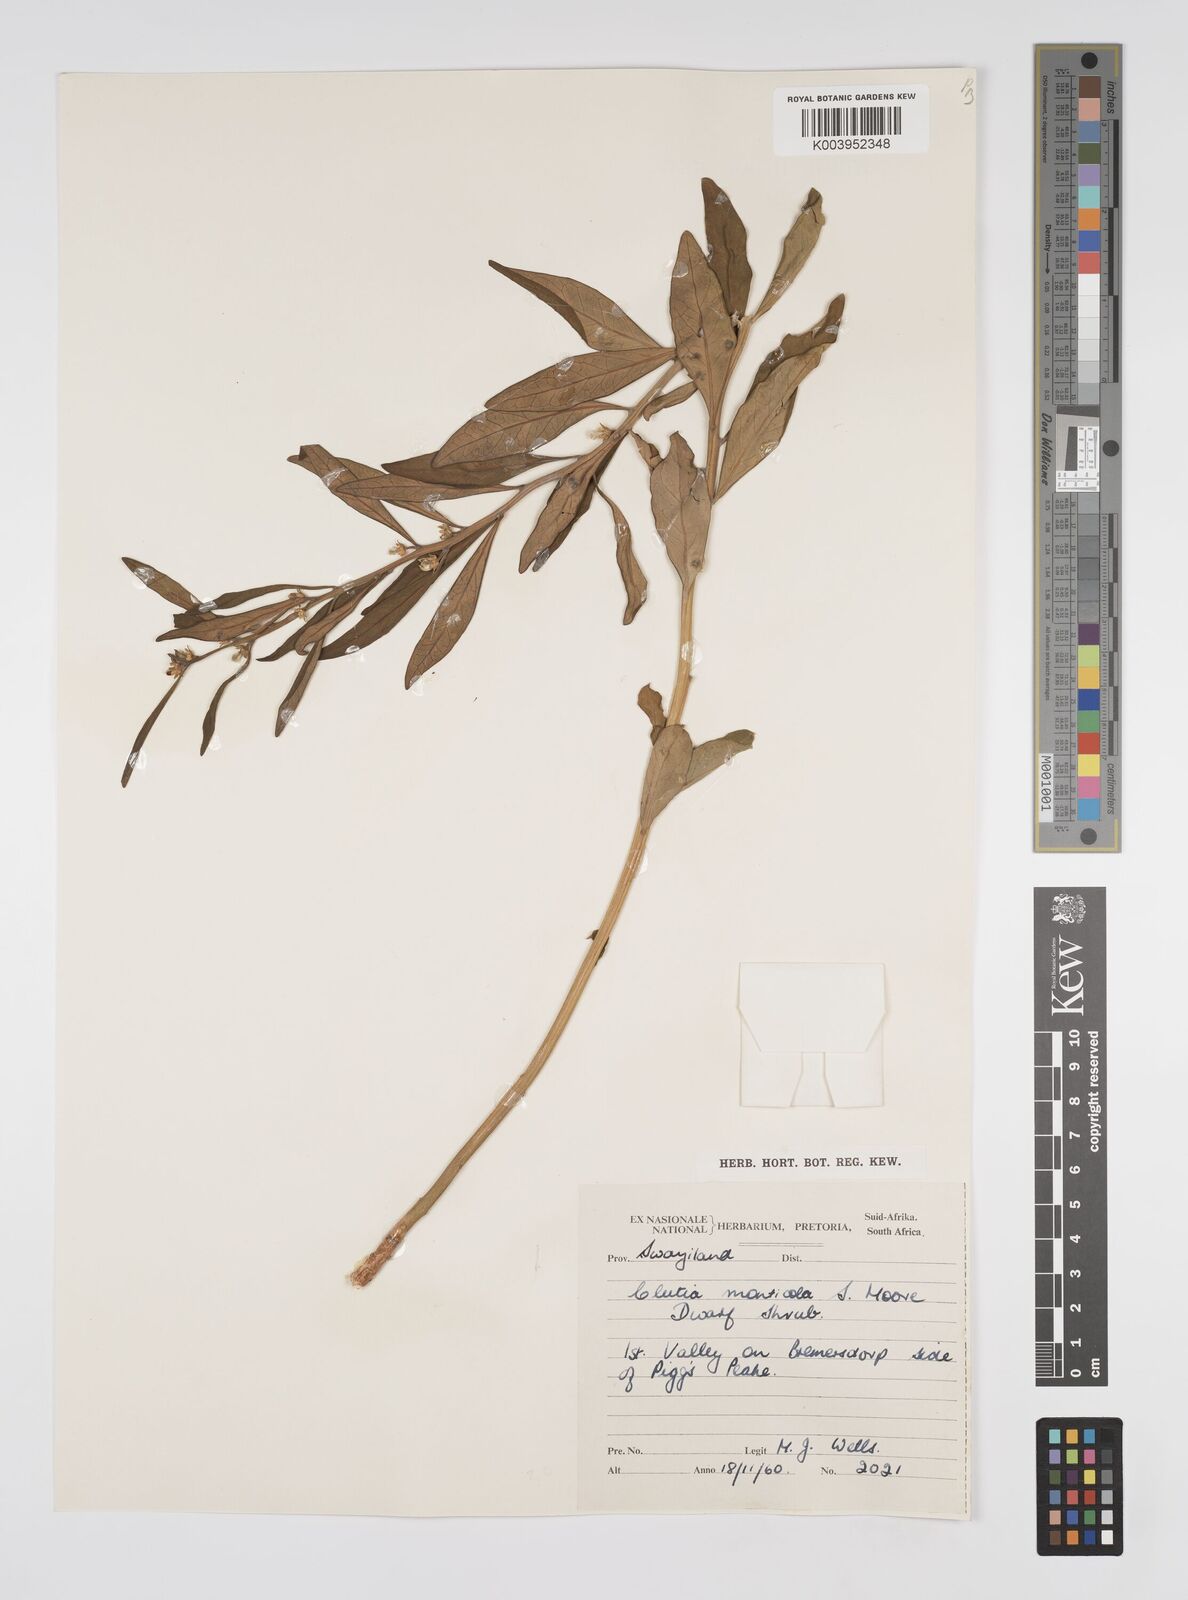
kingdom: Plantae
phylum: Tracheophyta
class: Magnoliopsida
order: Malpighiales
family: Peraceae
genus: Clutia
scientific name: Clutia monticola
